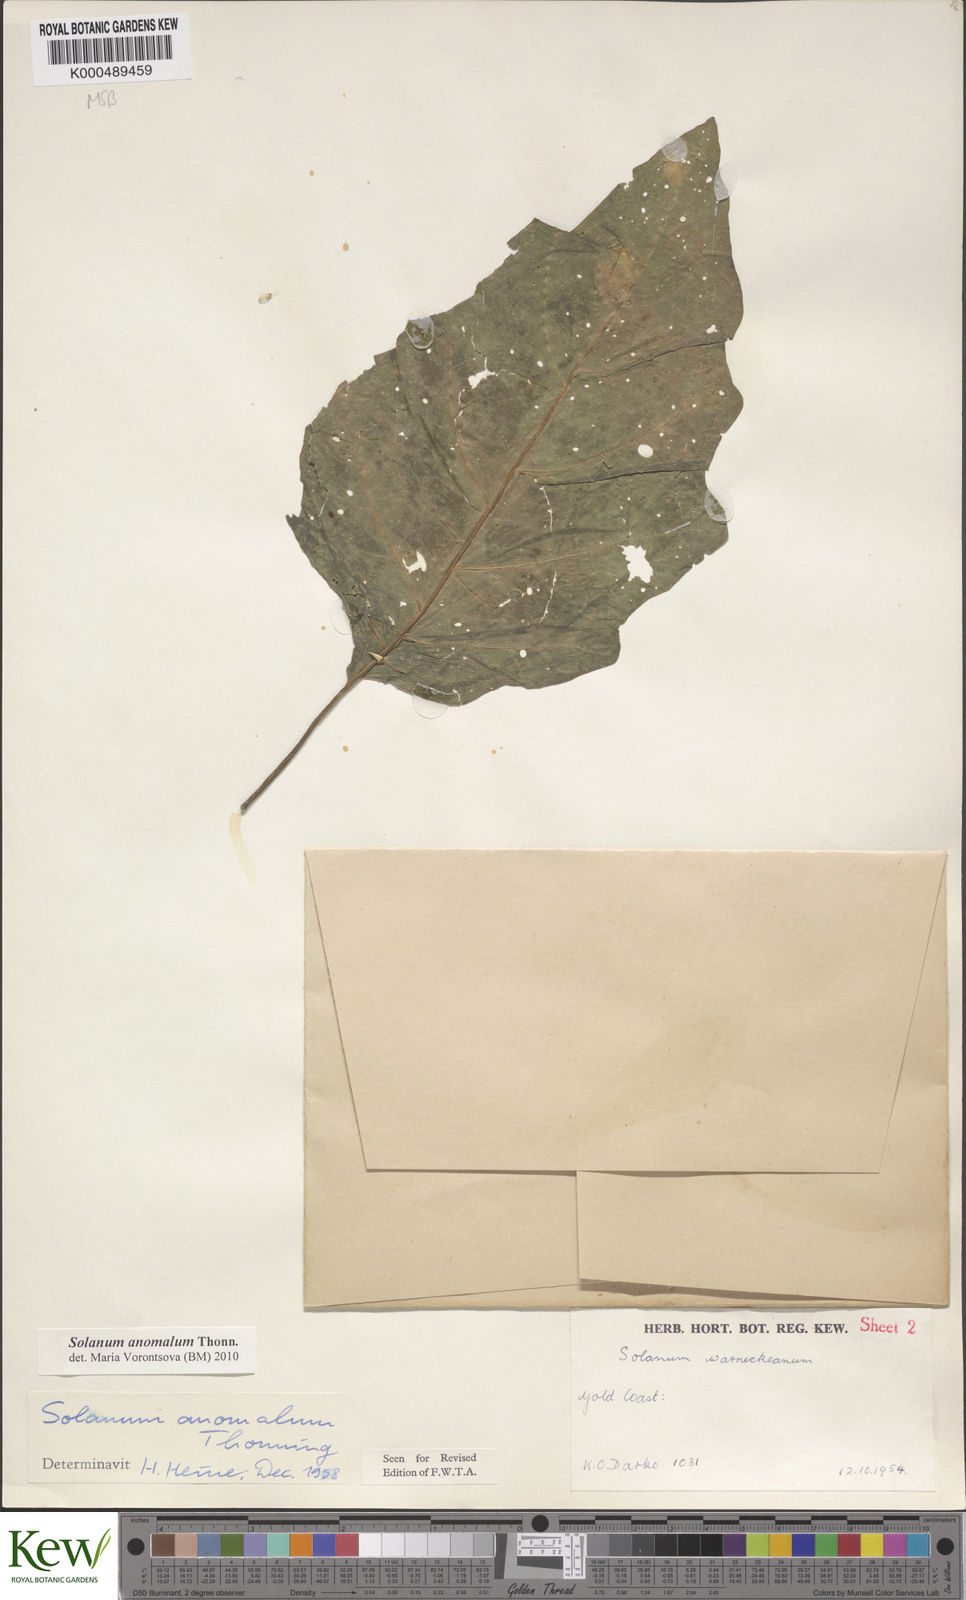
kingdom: Plantae
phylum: Tracheophyta
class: Magnoliopsida
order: Solanales
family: Solanaceae
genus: Solanum
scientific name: Solanum anomalum
